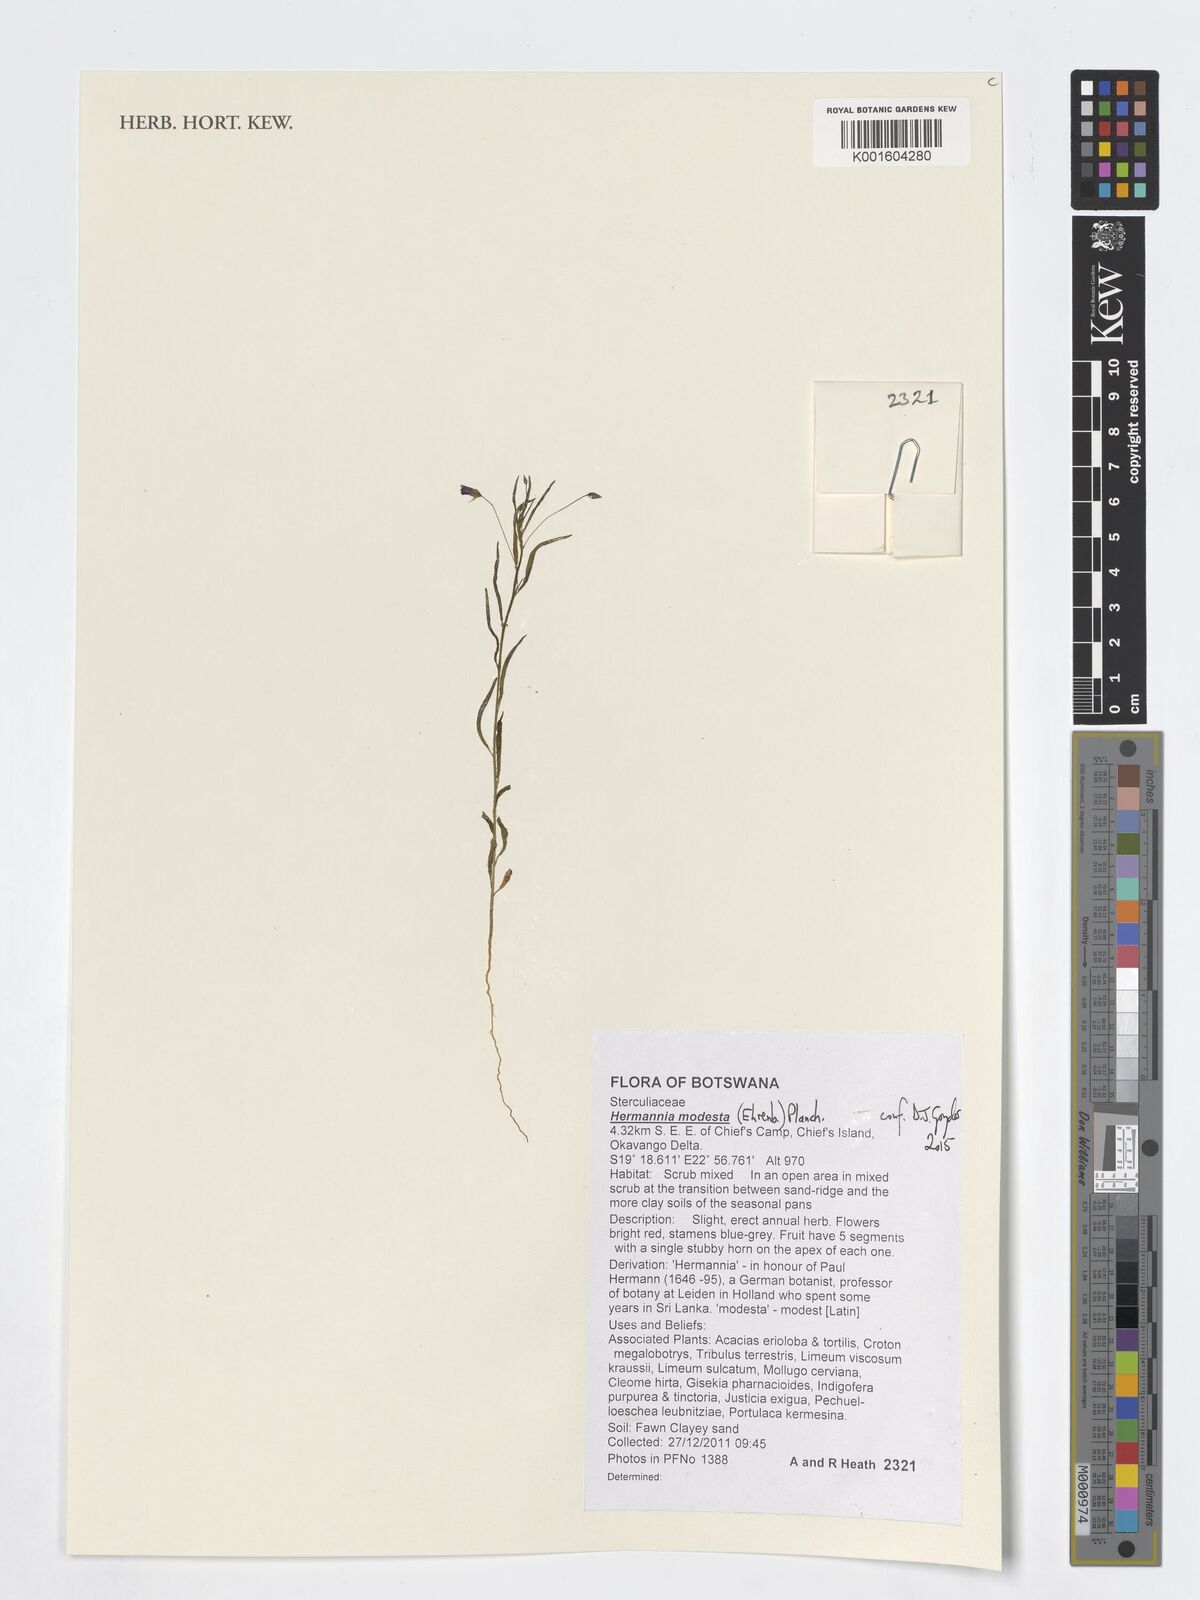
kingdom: Plantae
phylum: Tracheophyta
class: Magnoliopsida
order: Malvales
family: Malvaceae
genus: Hermannia
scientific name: Hermannia modesta
